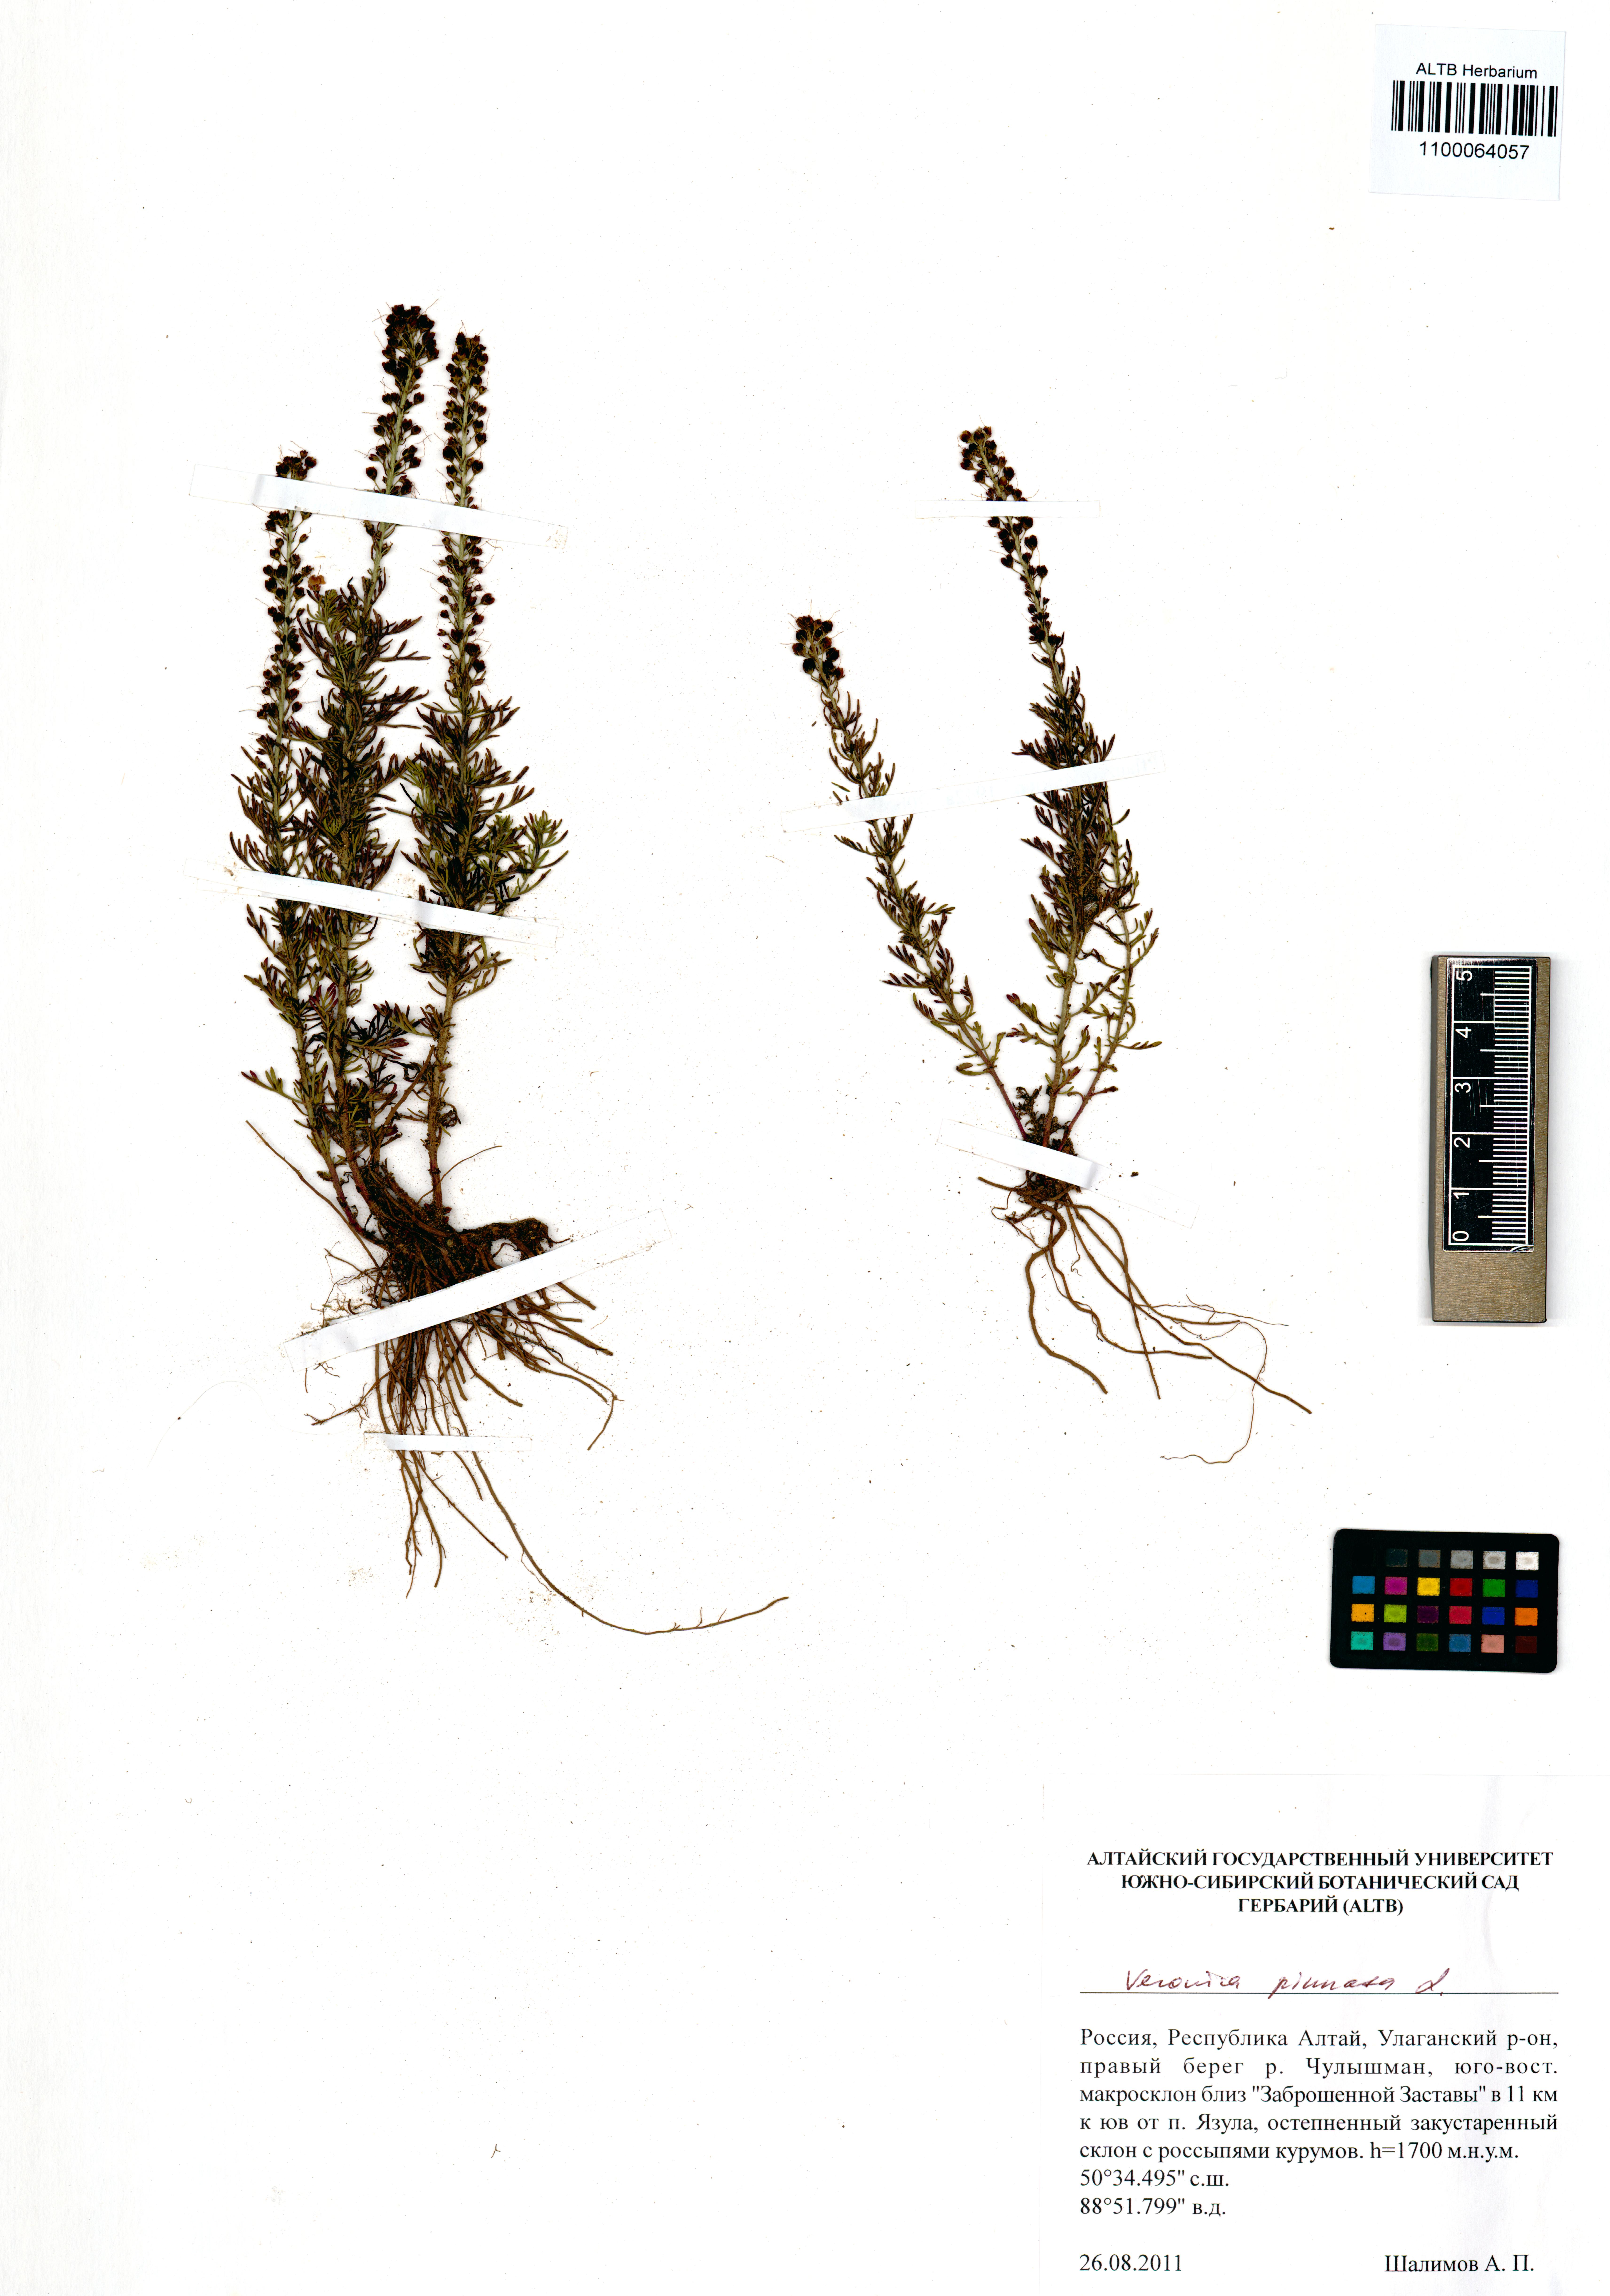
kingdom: Plantae
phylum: Tracheophyta
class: Magnoliopsida
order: Lamiales
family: Plantaginaceae
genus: Veronica
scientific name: Veronica pinnata
